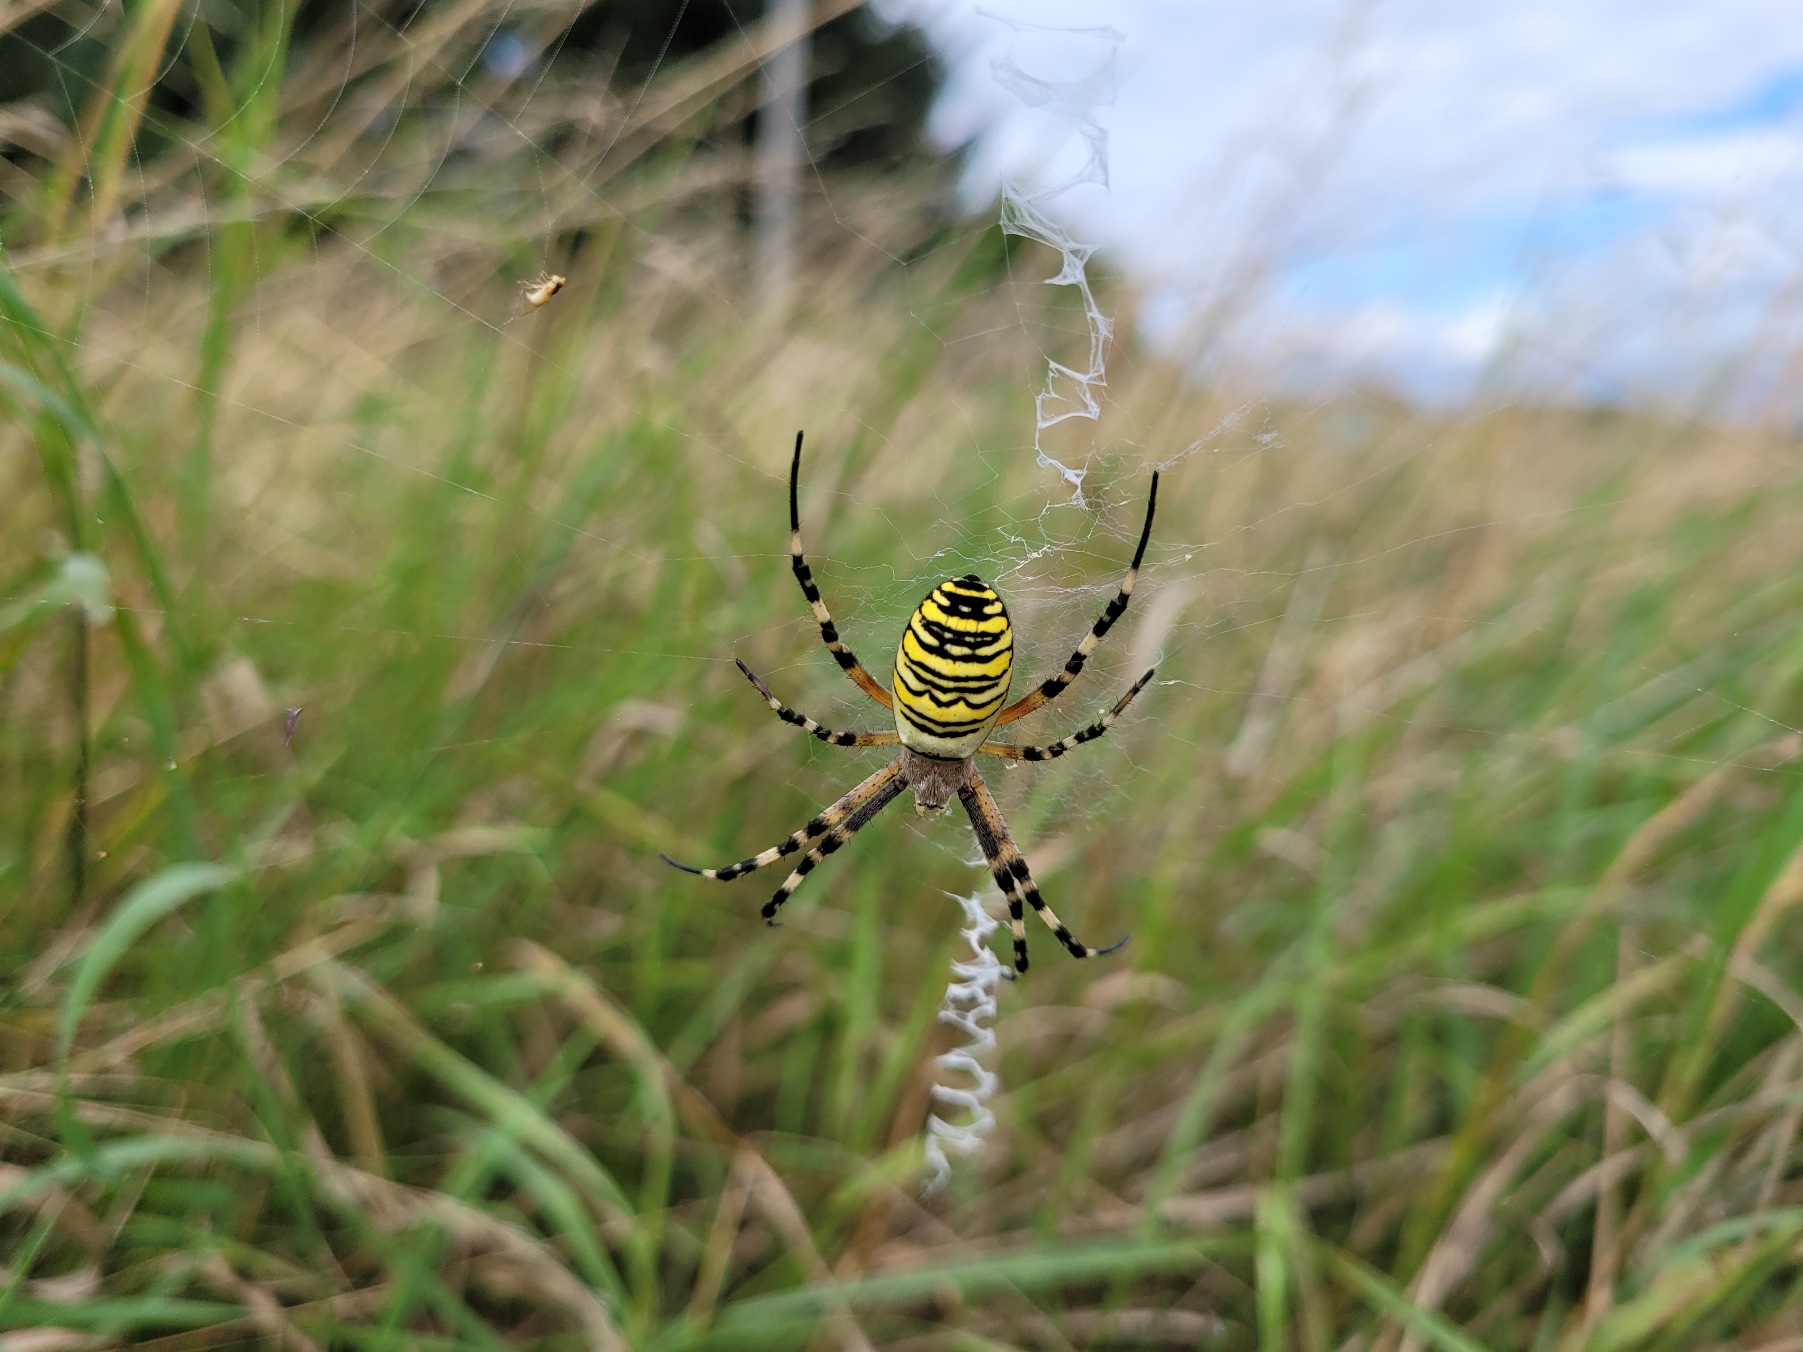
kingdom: Animalia
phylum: Arthropoda
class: Arachnida
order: Araneae
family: Araneidae
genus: Argiope
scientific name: Argiope bruennichi
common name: Hvepseedderkop
